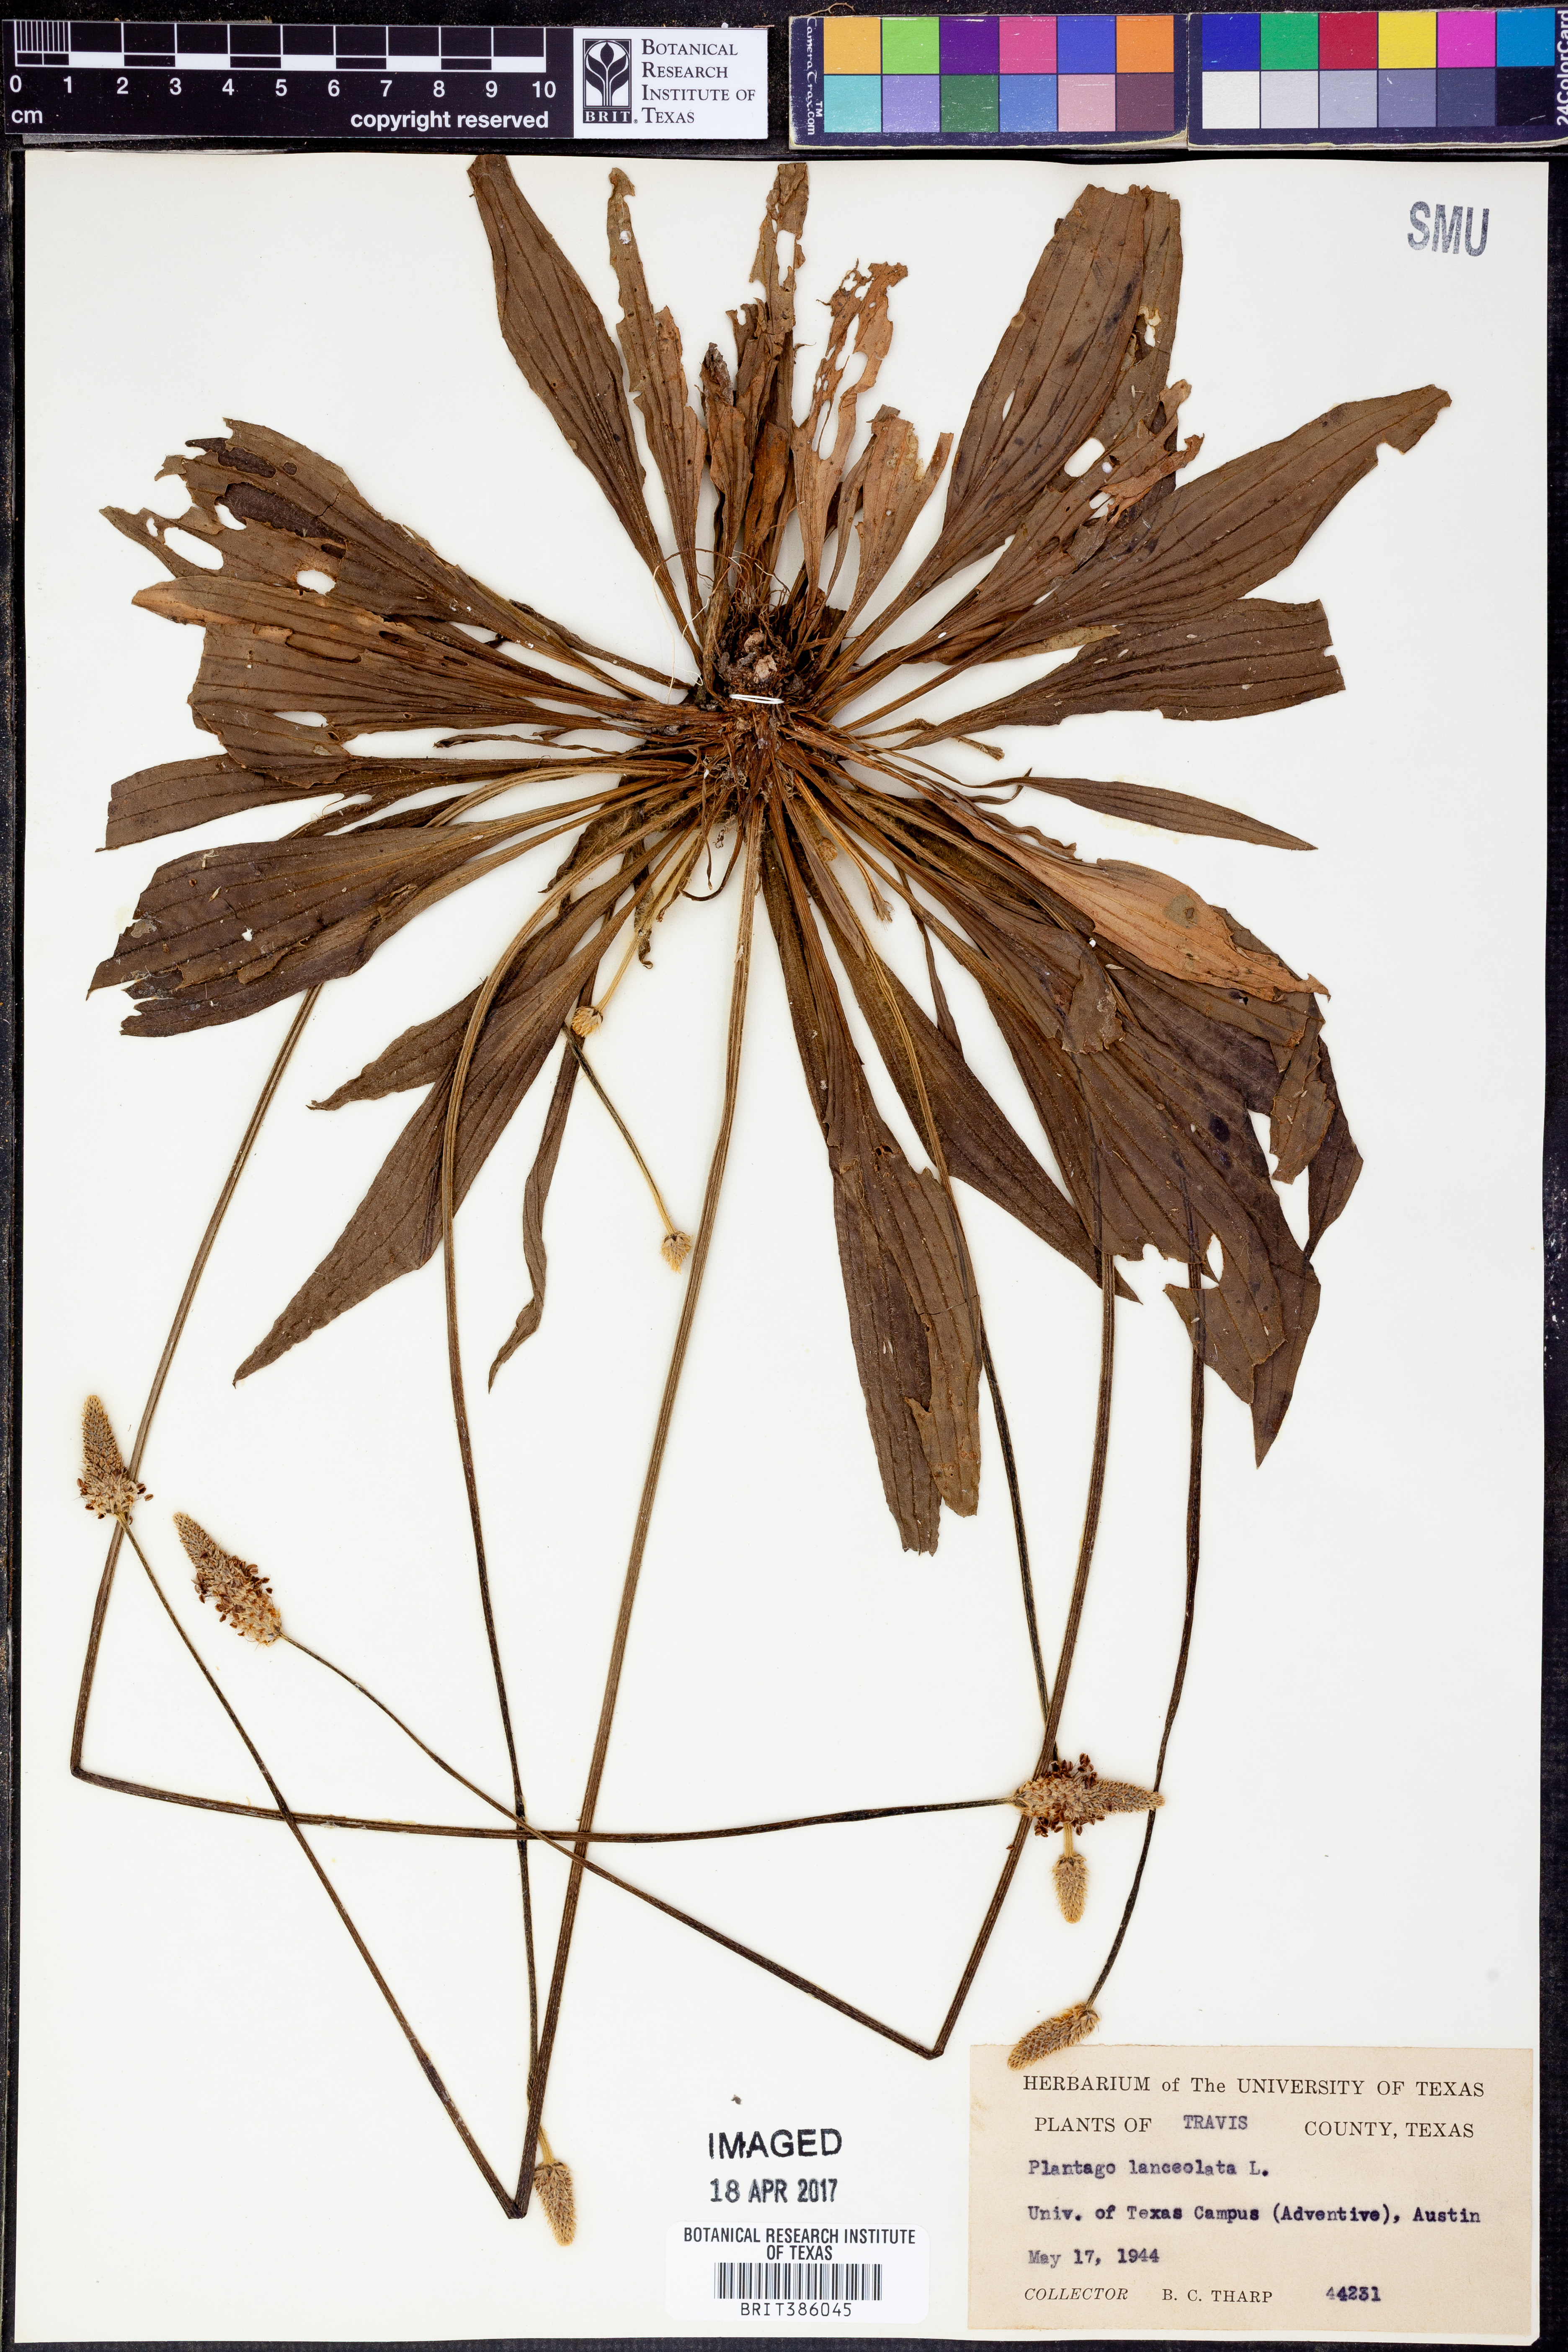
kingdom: Plantae
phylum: Tracheophyta
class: Magnoliopsida
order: Lamiales
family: Plantaginaceae
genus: Plantago
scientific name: Plantago lanceolata
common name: Ribwort plantain
